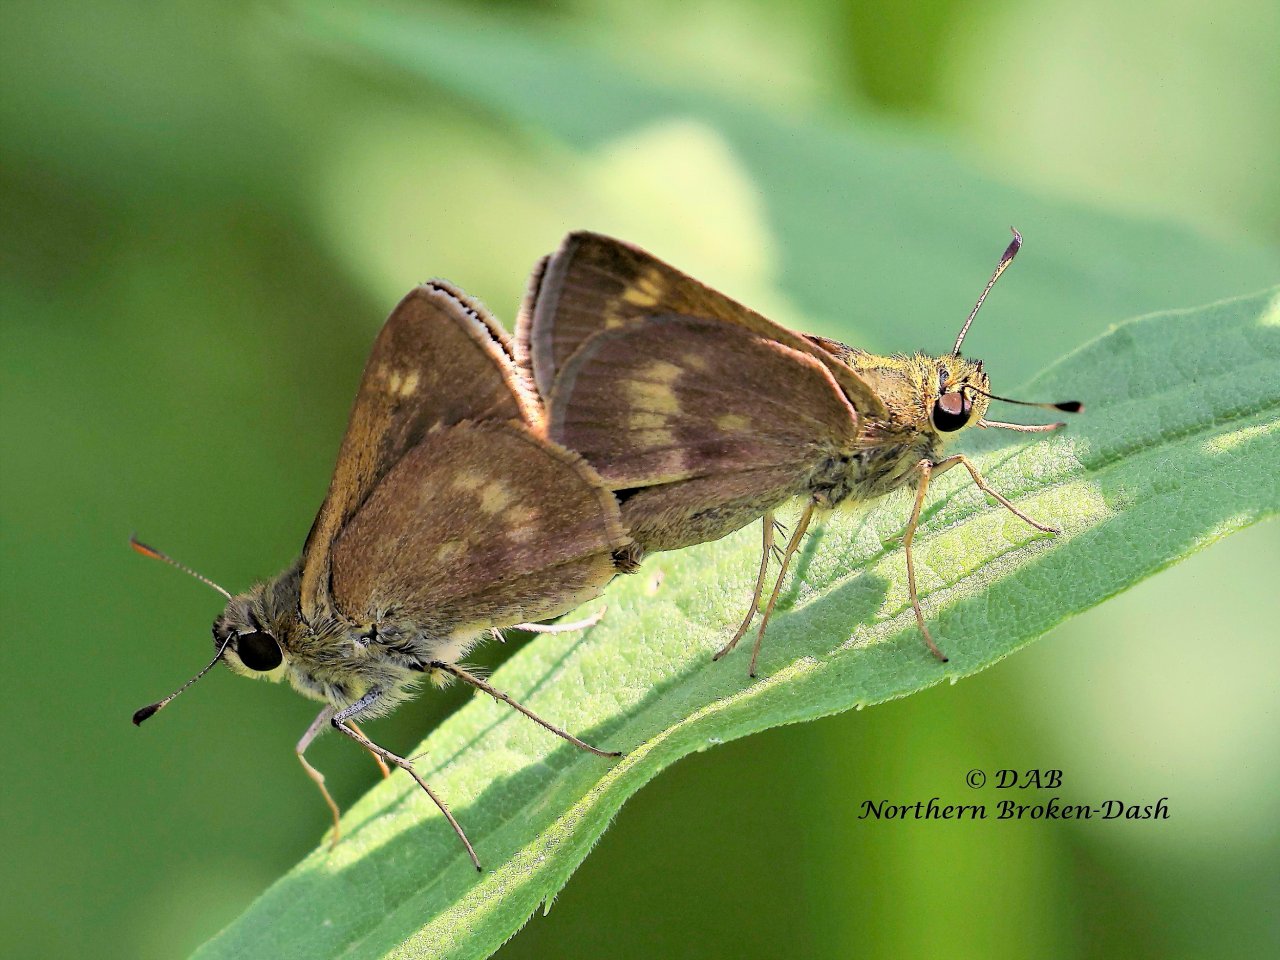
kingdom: Animalia
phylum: Arthropoda
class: Insecta
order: Lepidoptera
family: Hesperiidae
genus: Polites
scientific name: Polites egeremet
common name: Northern Broken-Dash
